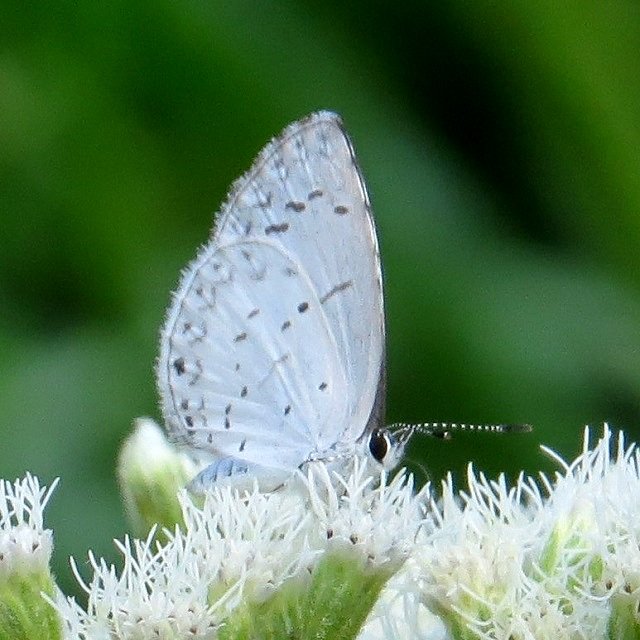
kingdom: Animalia
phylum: Arthropoda
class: Insecta
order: Lepidoptera
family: Lycaenidae
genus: Celastrina
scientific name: Celastrina
